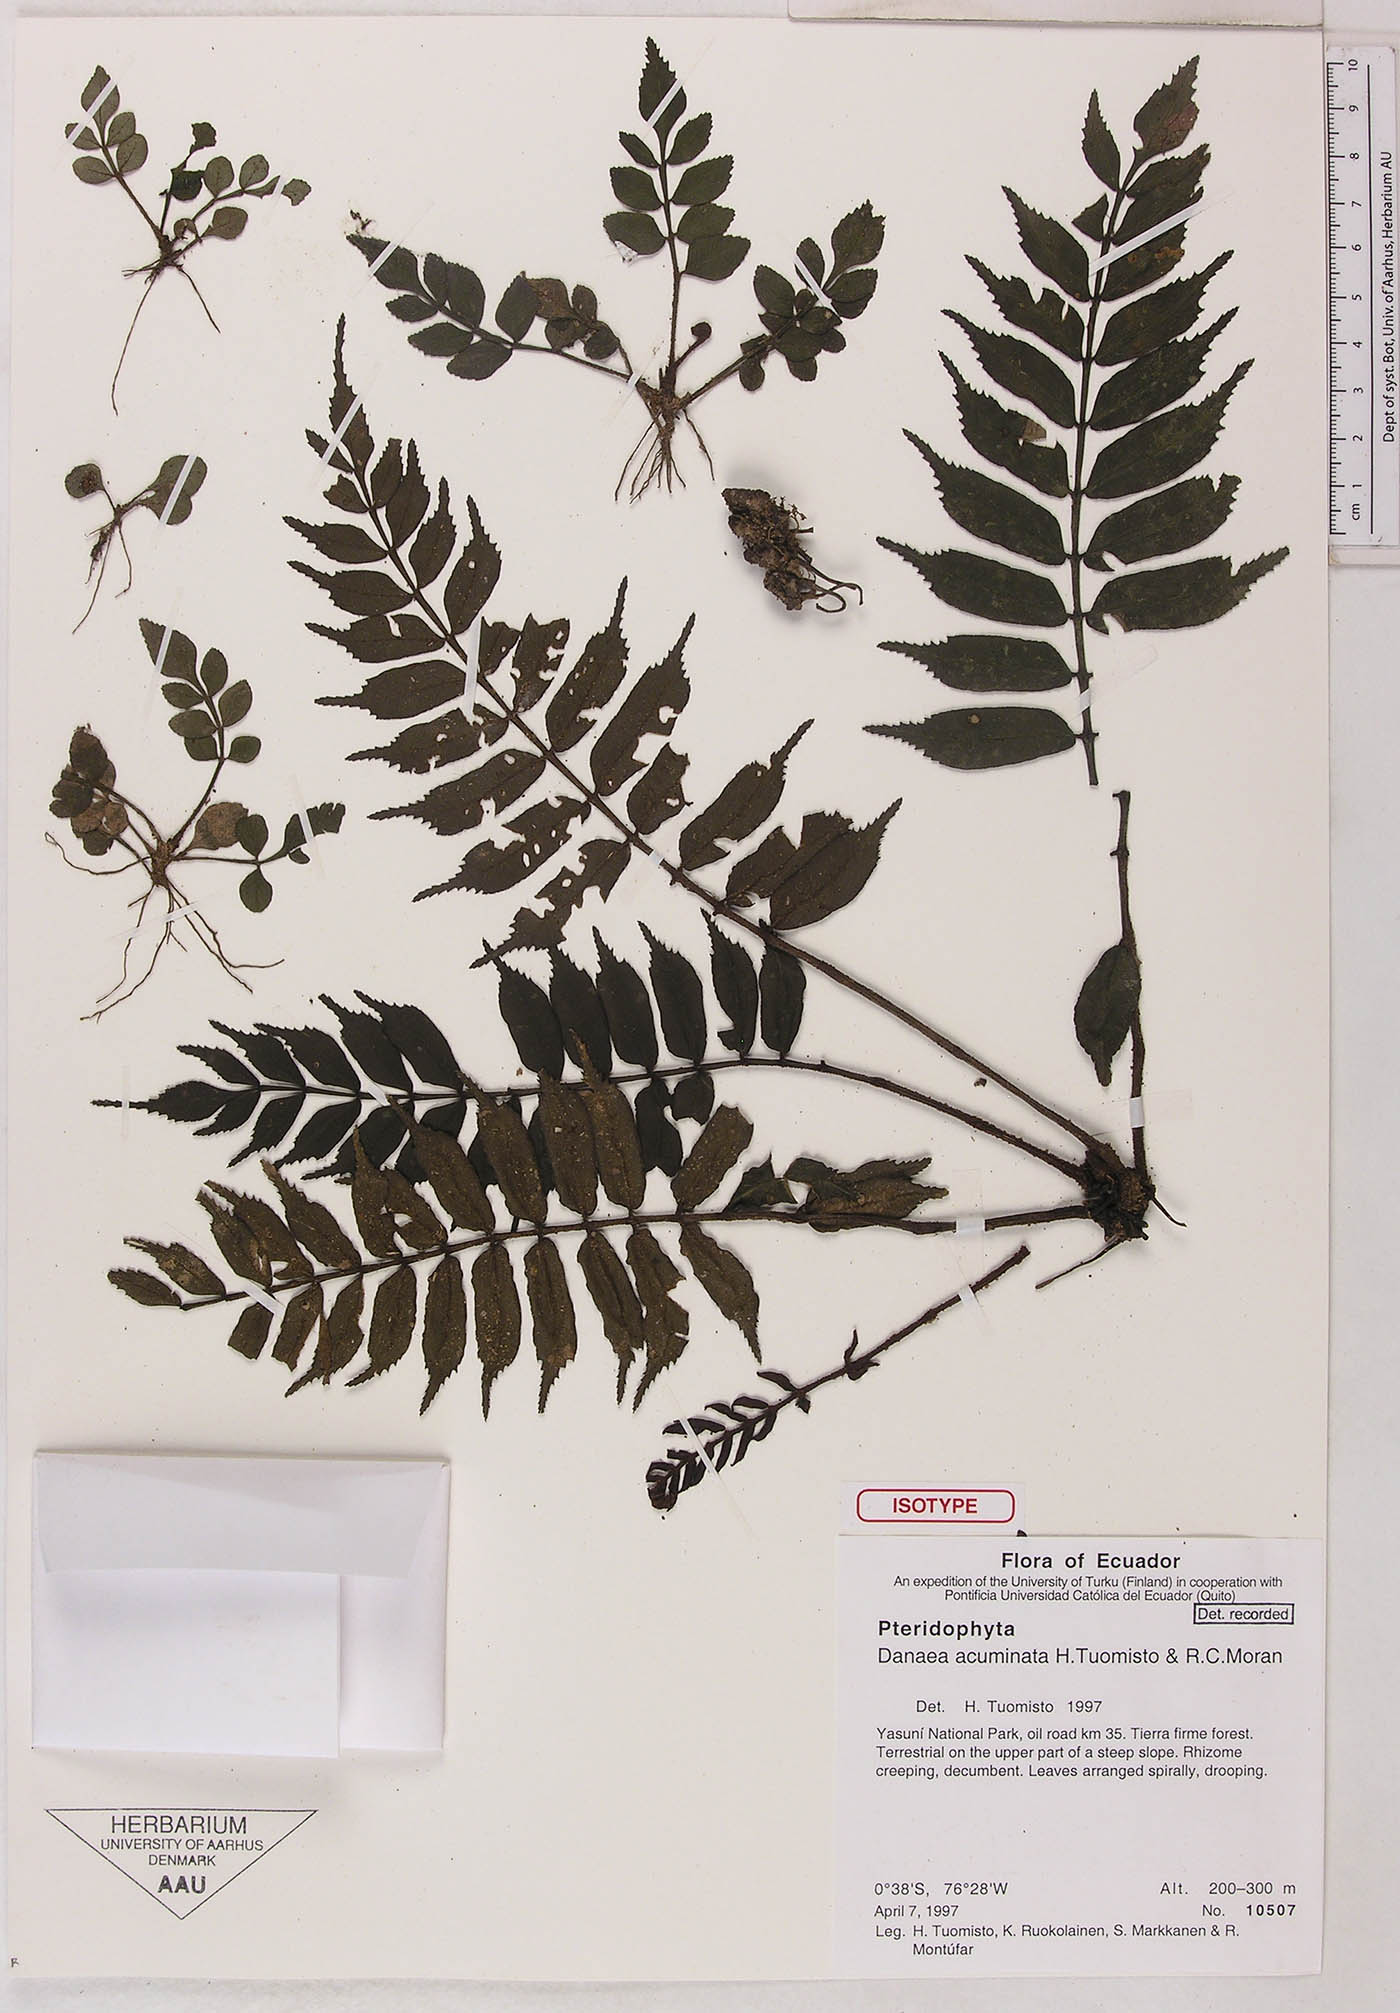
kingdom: Plantae
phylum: Tracheophyta
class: Polypodiopsida
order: Marattiales
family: Marattiaceae
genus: Danaea
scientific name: Danaea acuminata
